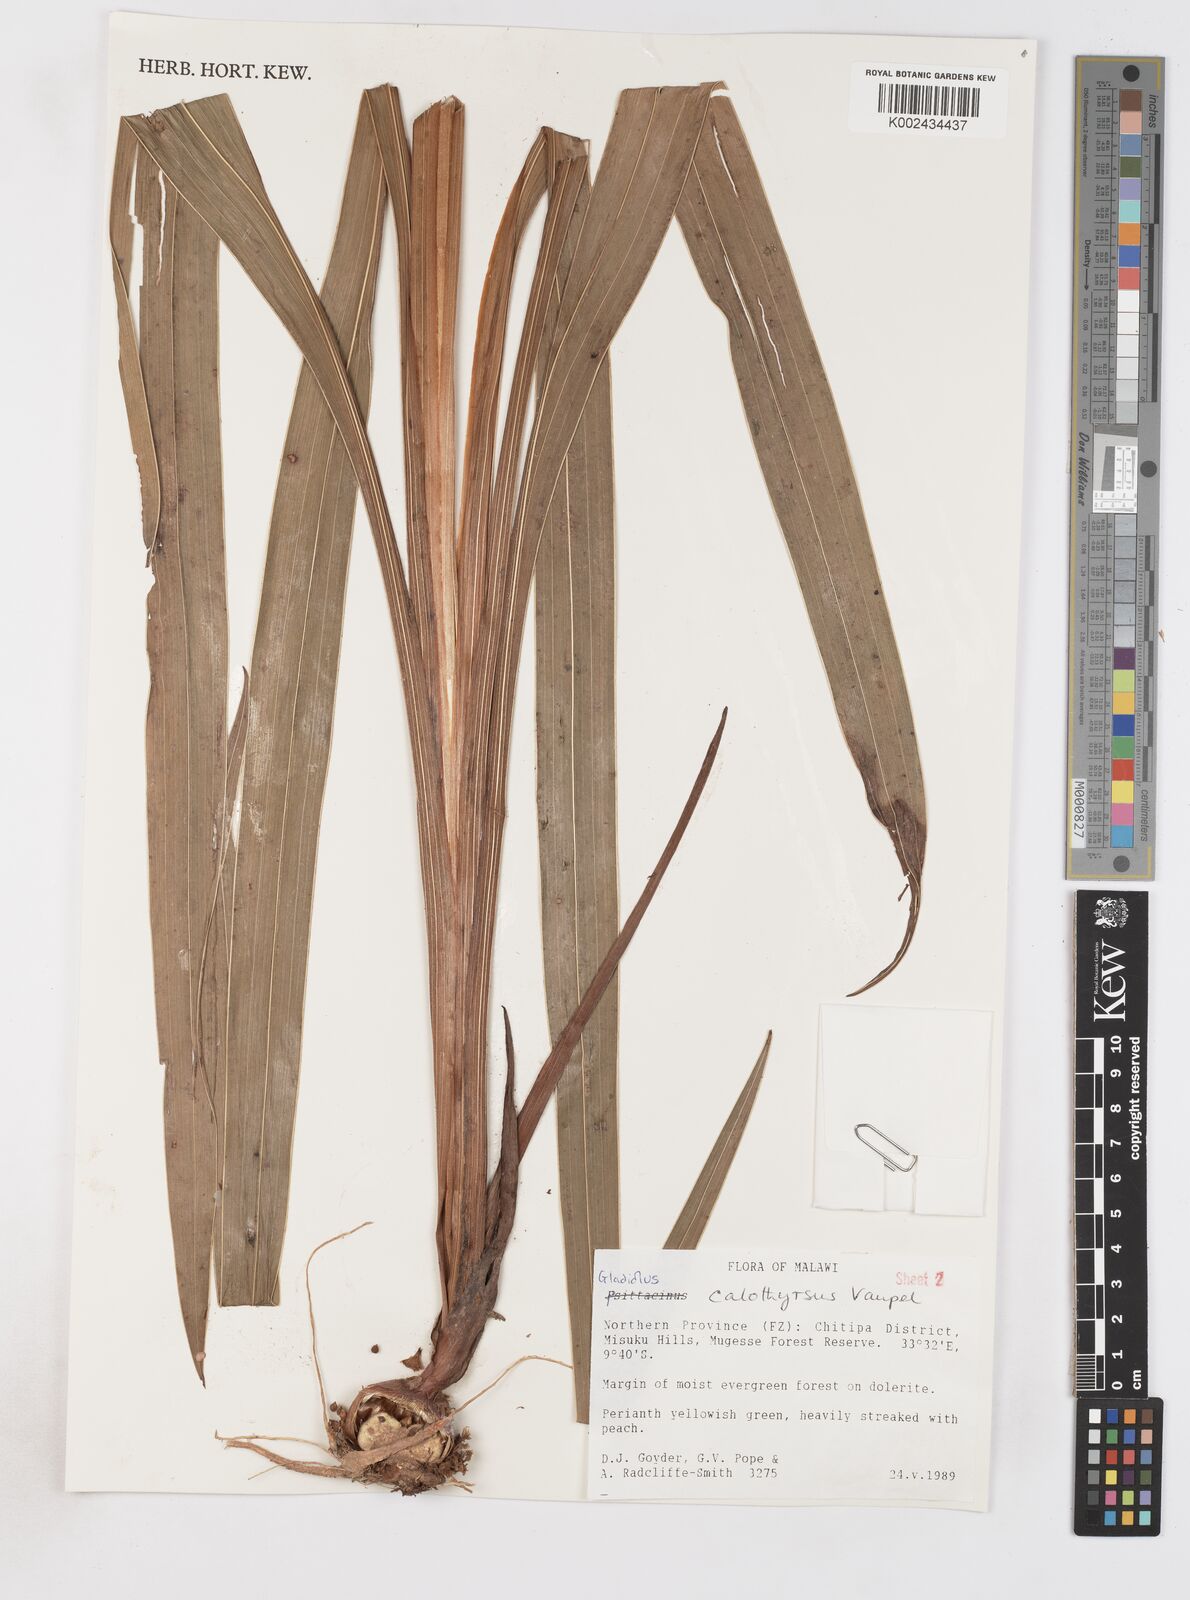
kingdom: Plantae
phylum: Tracheophyta
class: Liliopsida
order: Asparagales
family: Iridaceae
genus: Gladiolus
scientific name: Gladiolus dalenii
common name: Cornflag
